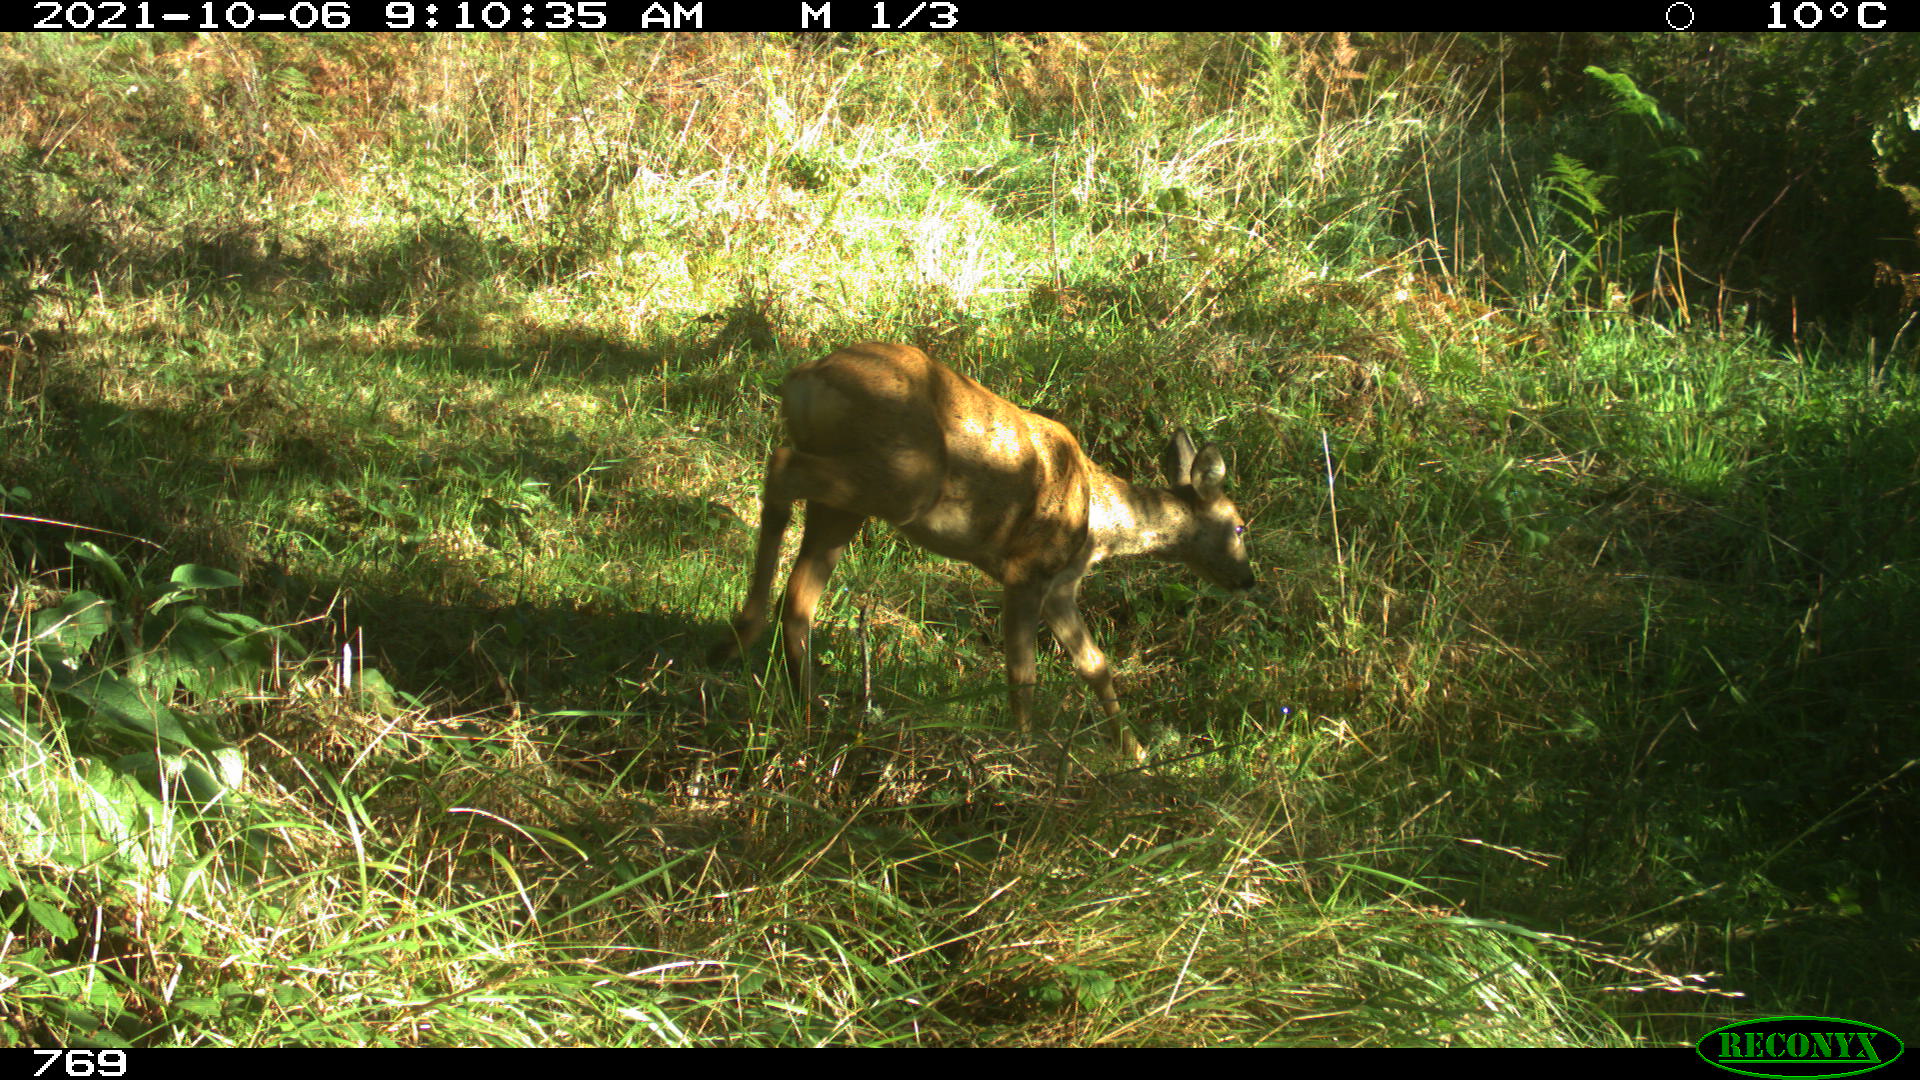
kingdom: Animalia
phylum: Chordata
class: Mammalia
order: Artiodactyla
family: Cervidae
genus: Capreolus
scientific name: Capreolus capreolus
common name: Western roe deer
